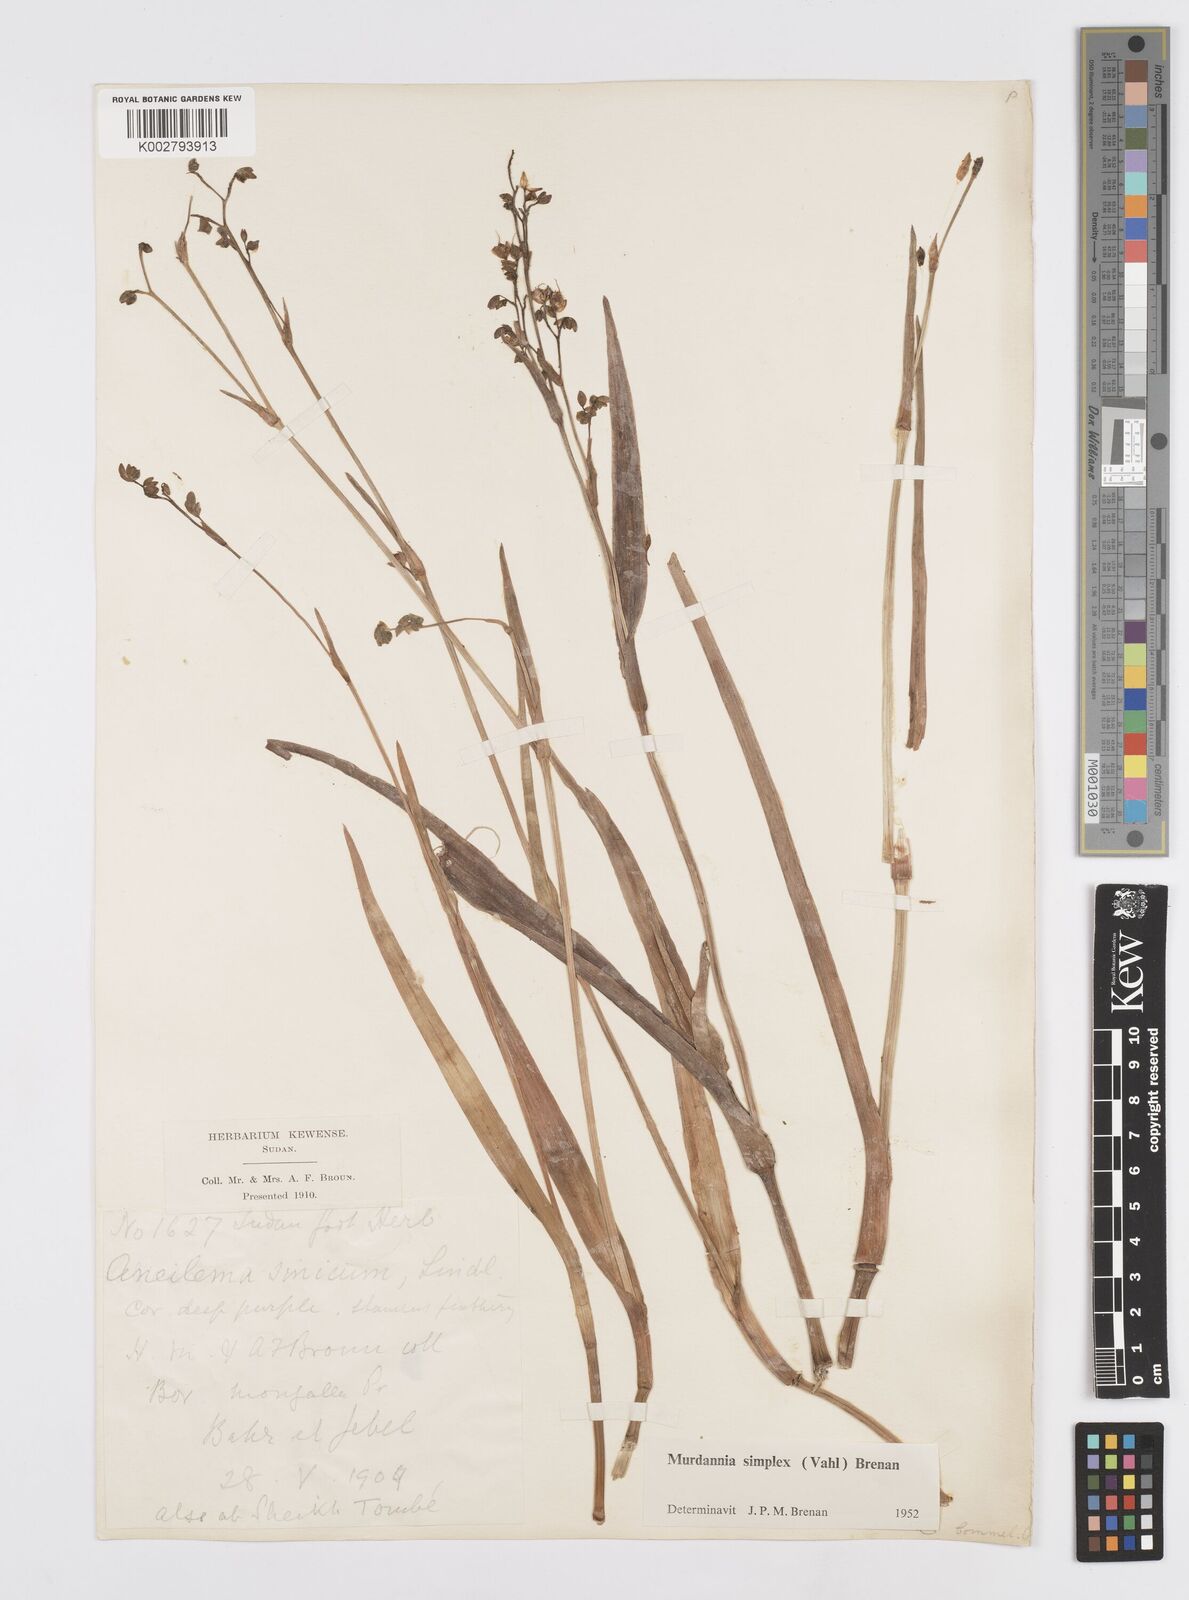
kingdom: Plantae
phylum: Tracheophyta
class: Liliopsida
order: Commelinales
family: Commelinaceae
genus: Murdannia
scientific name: Murdannia simplex
